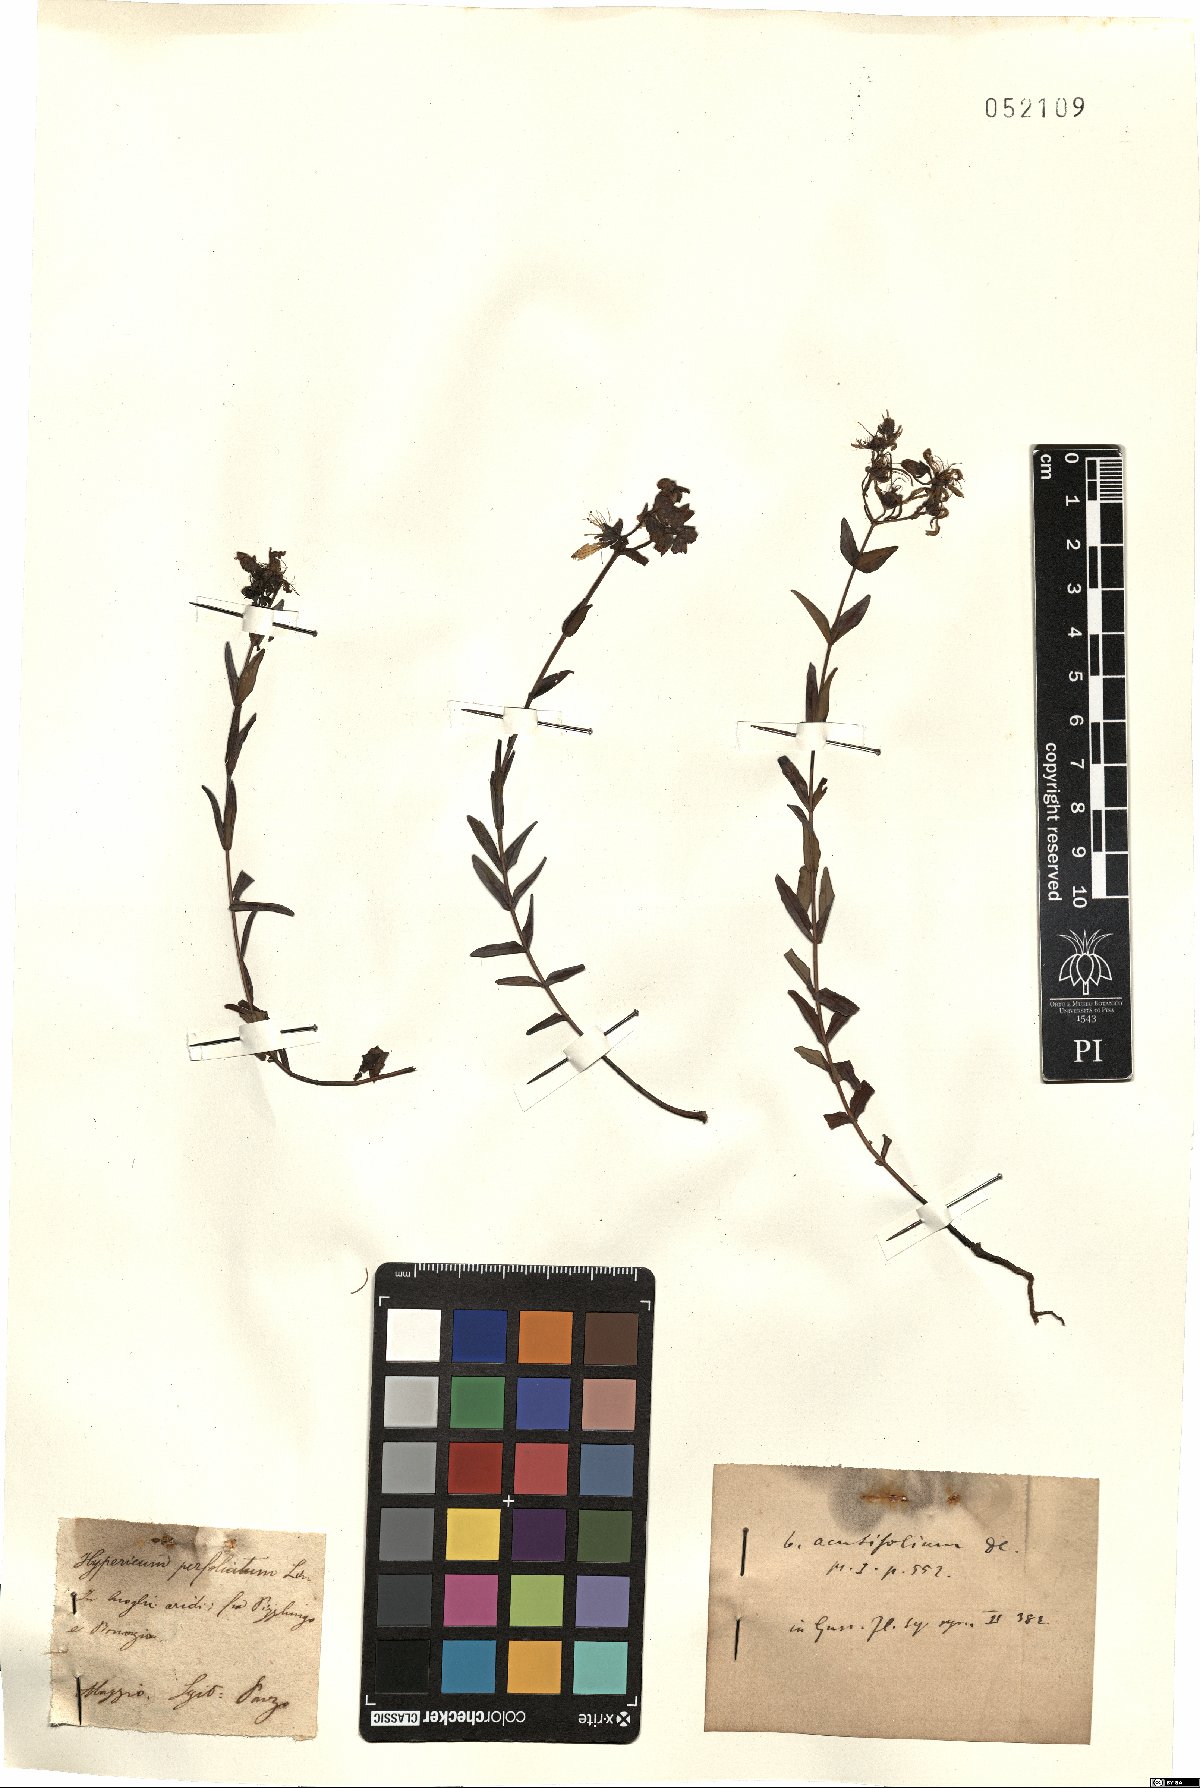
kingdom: Plantae
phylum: Tracheophyta
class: Magnoliopsida
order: Malpighiales
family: Hypericaceae
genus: Hypericum
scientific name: Hypericum perfoliatum
